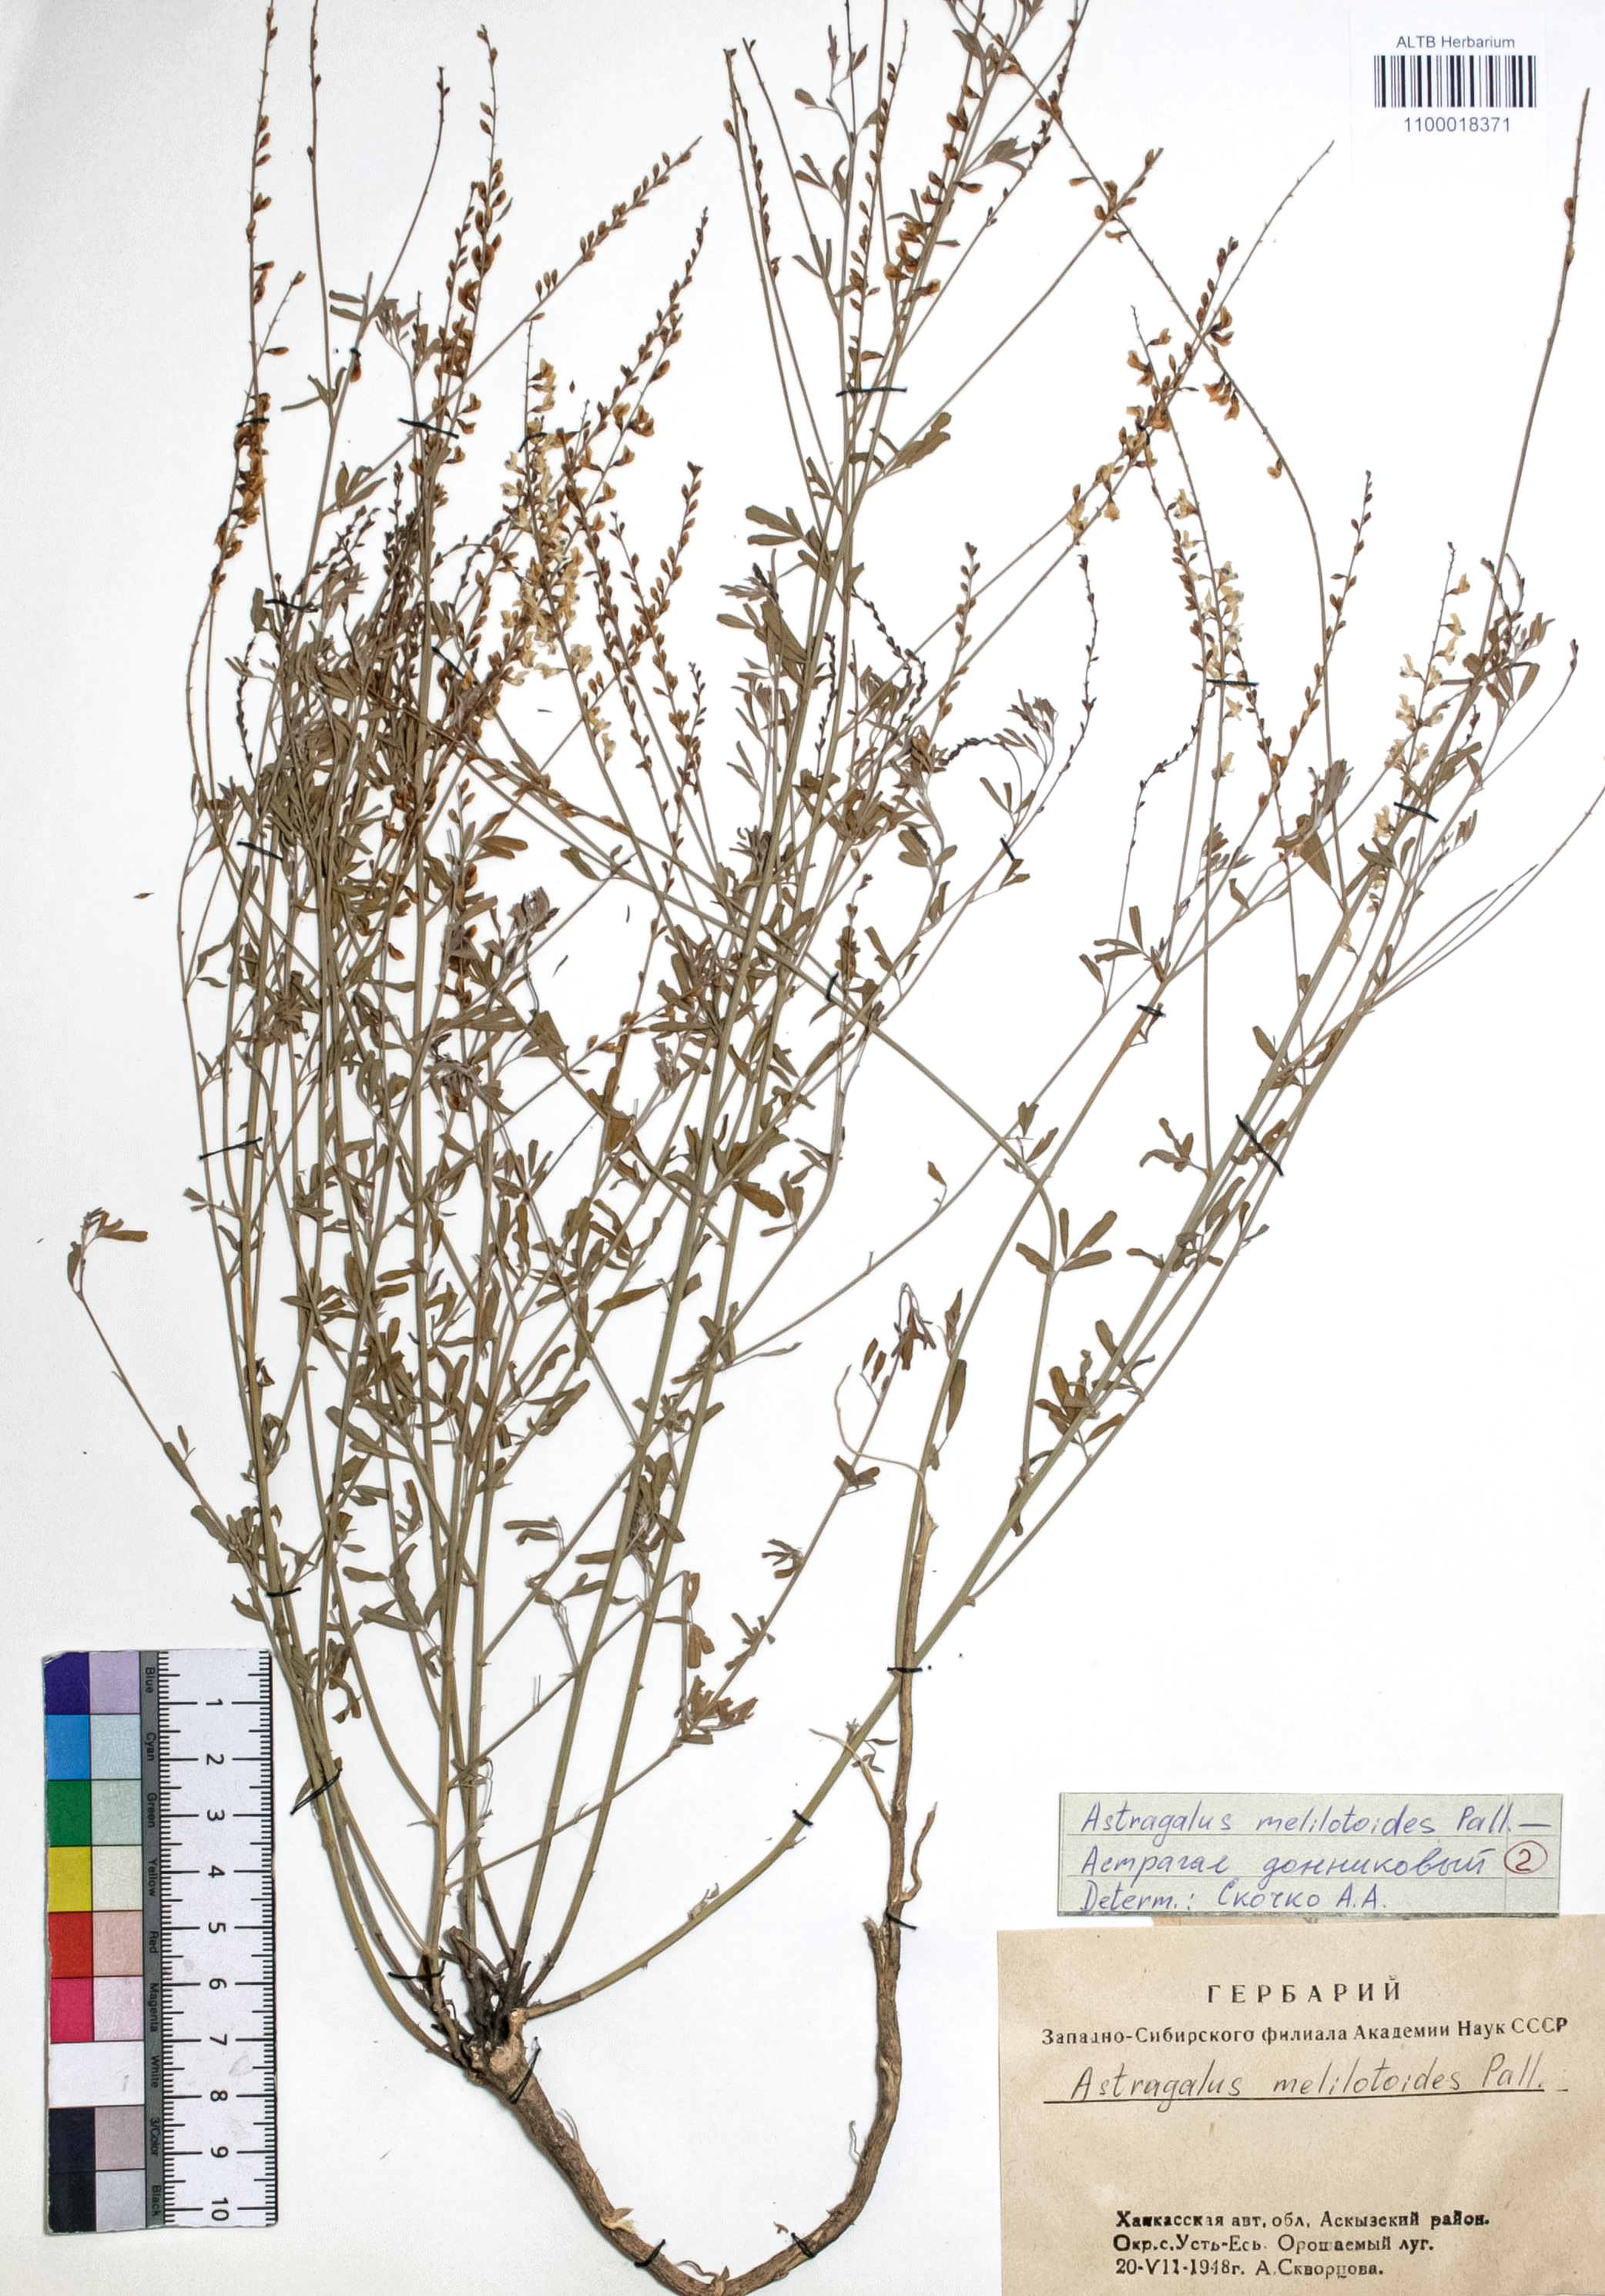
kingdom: Plantae
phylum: Tracheophyta
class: Magnoliopsida
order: Fabales
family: Fabaceae
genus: Astragalus
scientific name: Astragalus melilotoides
